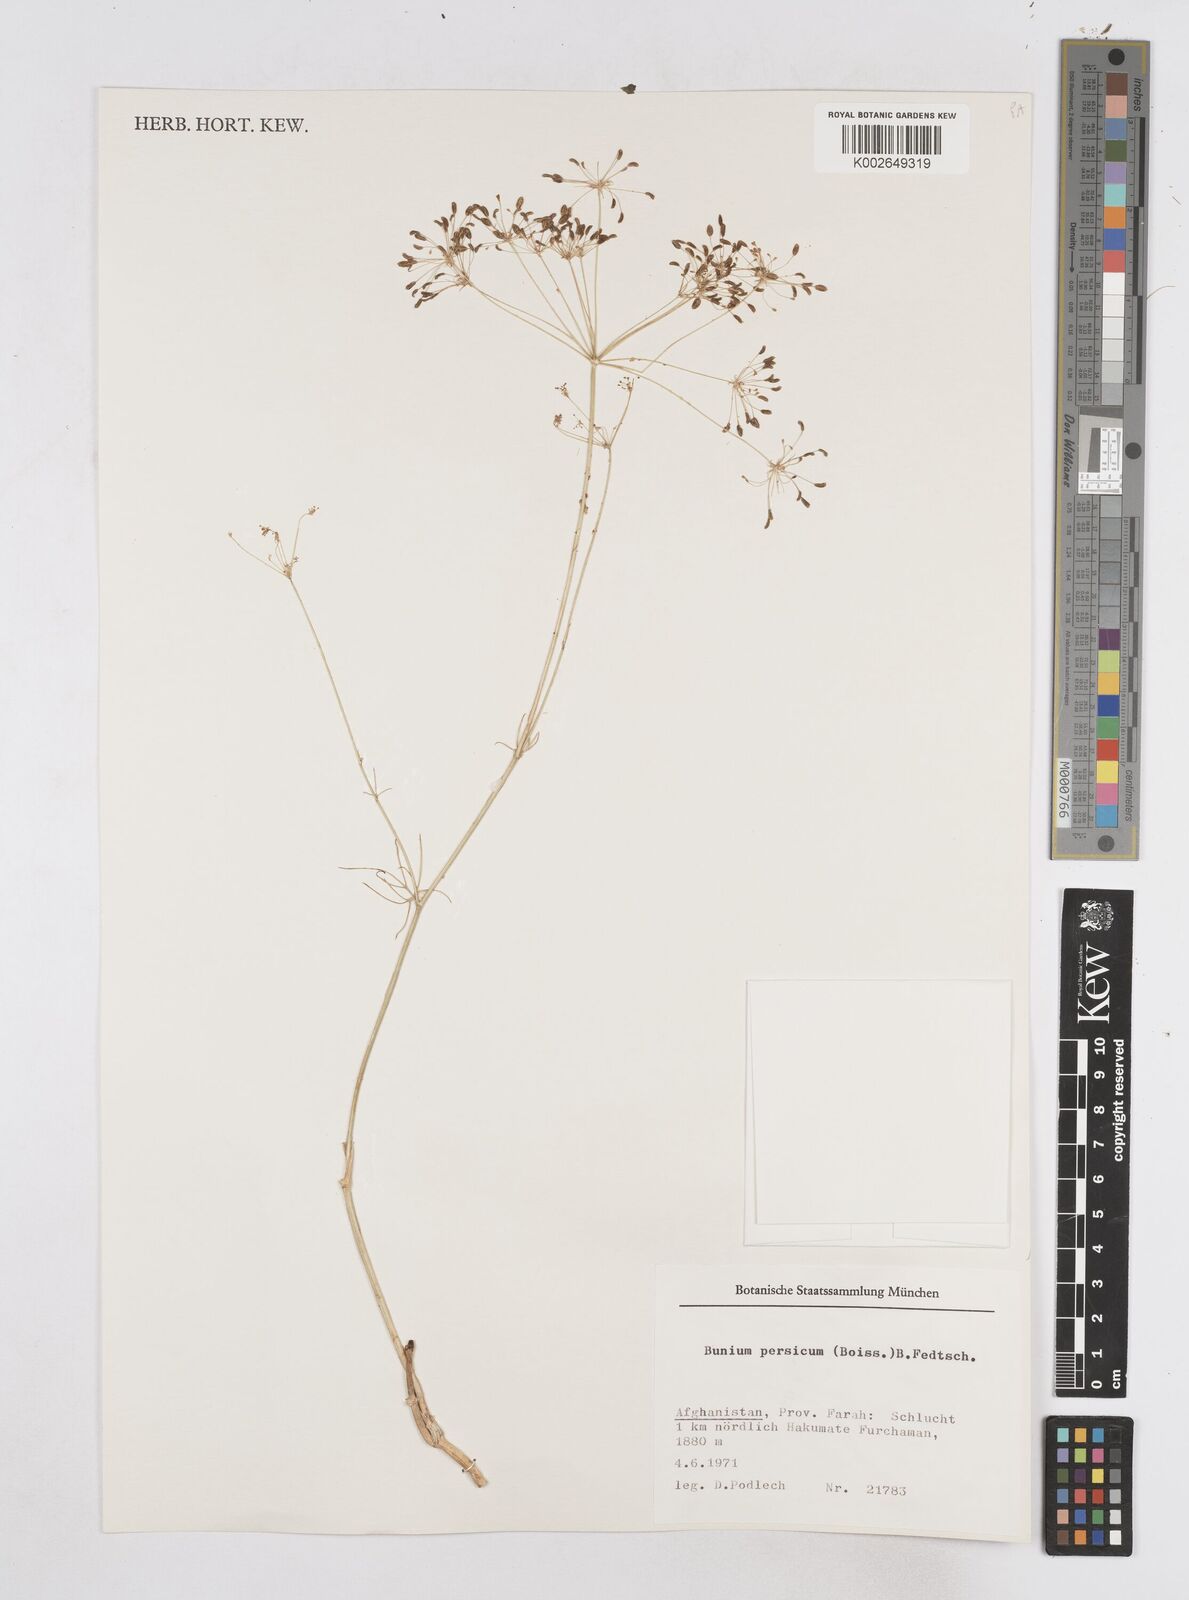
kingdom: Plantae
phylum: Tracheophyta
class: Magnoliopsida
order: Apiales
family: Apiaceae
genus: Elwendia
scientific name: Elwendia persica
